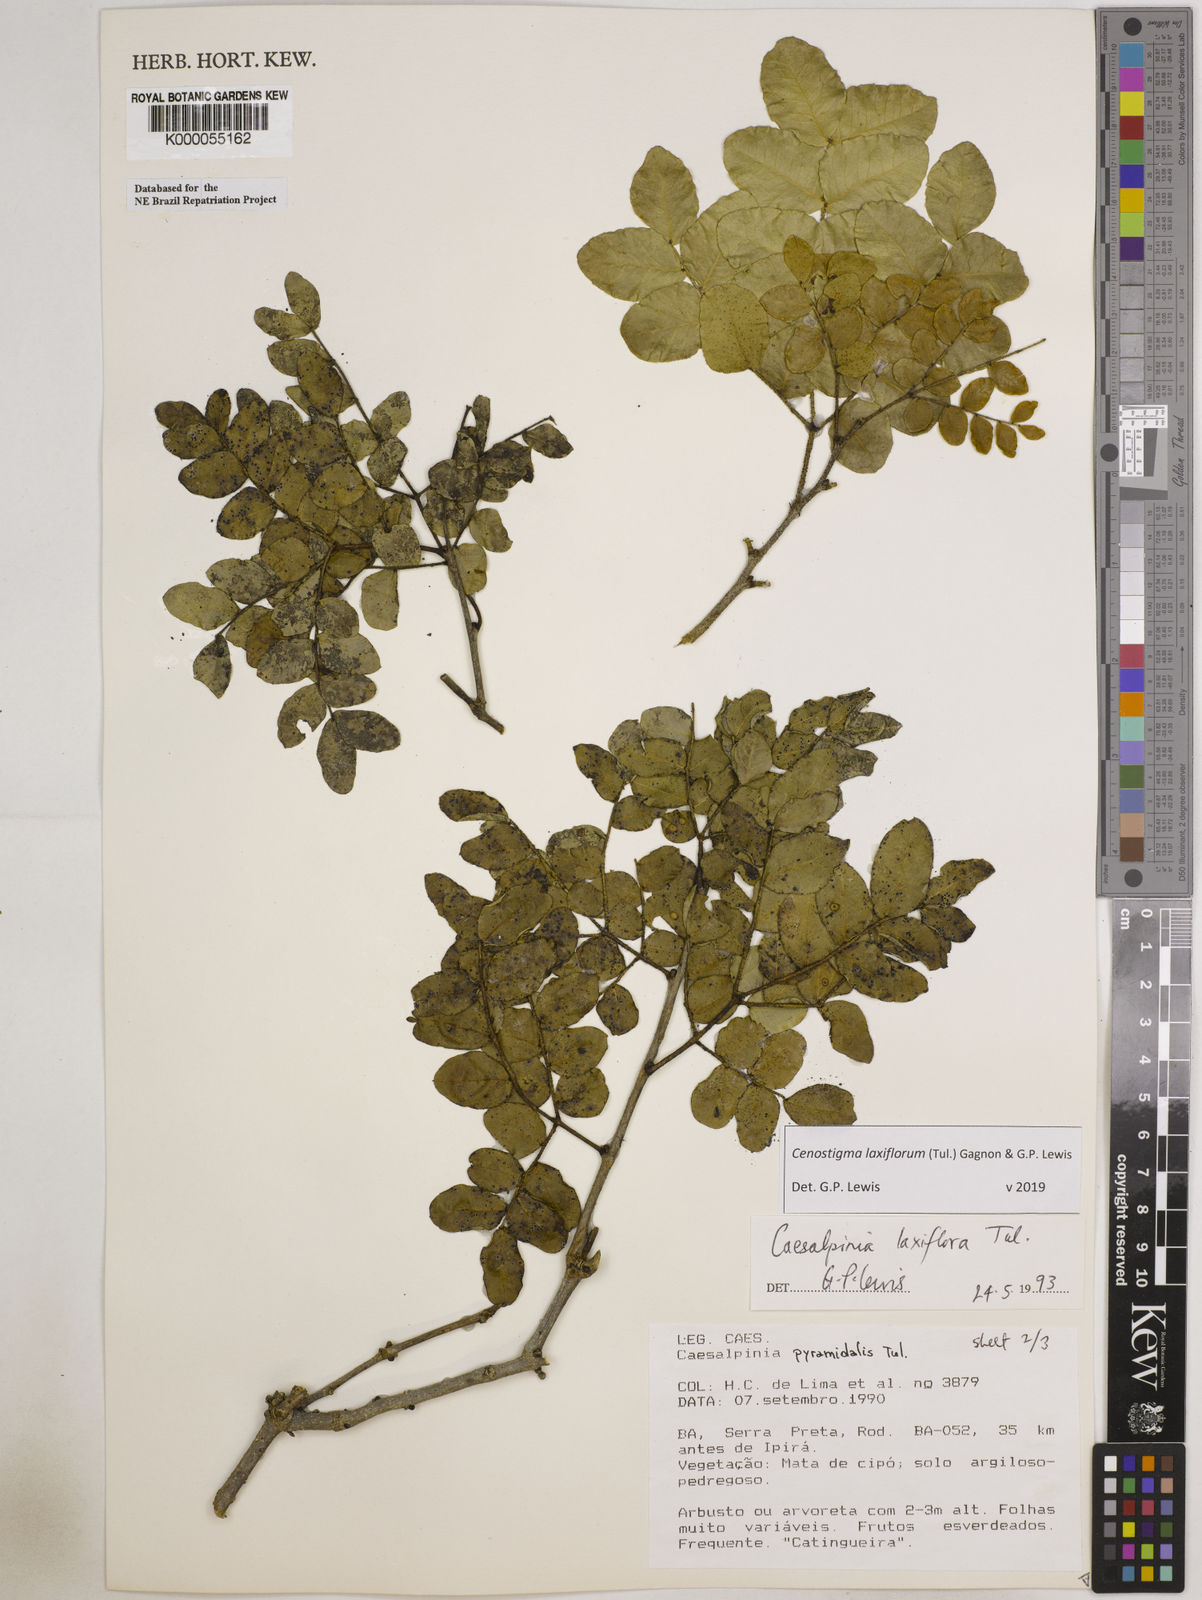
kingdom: Plantae
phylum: Tracheophyta
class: Magnoliopsida
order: Fabales
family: Fabaceae
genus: Cenostigma
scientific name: Cenostigma laxiflorum
